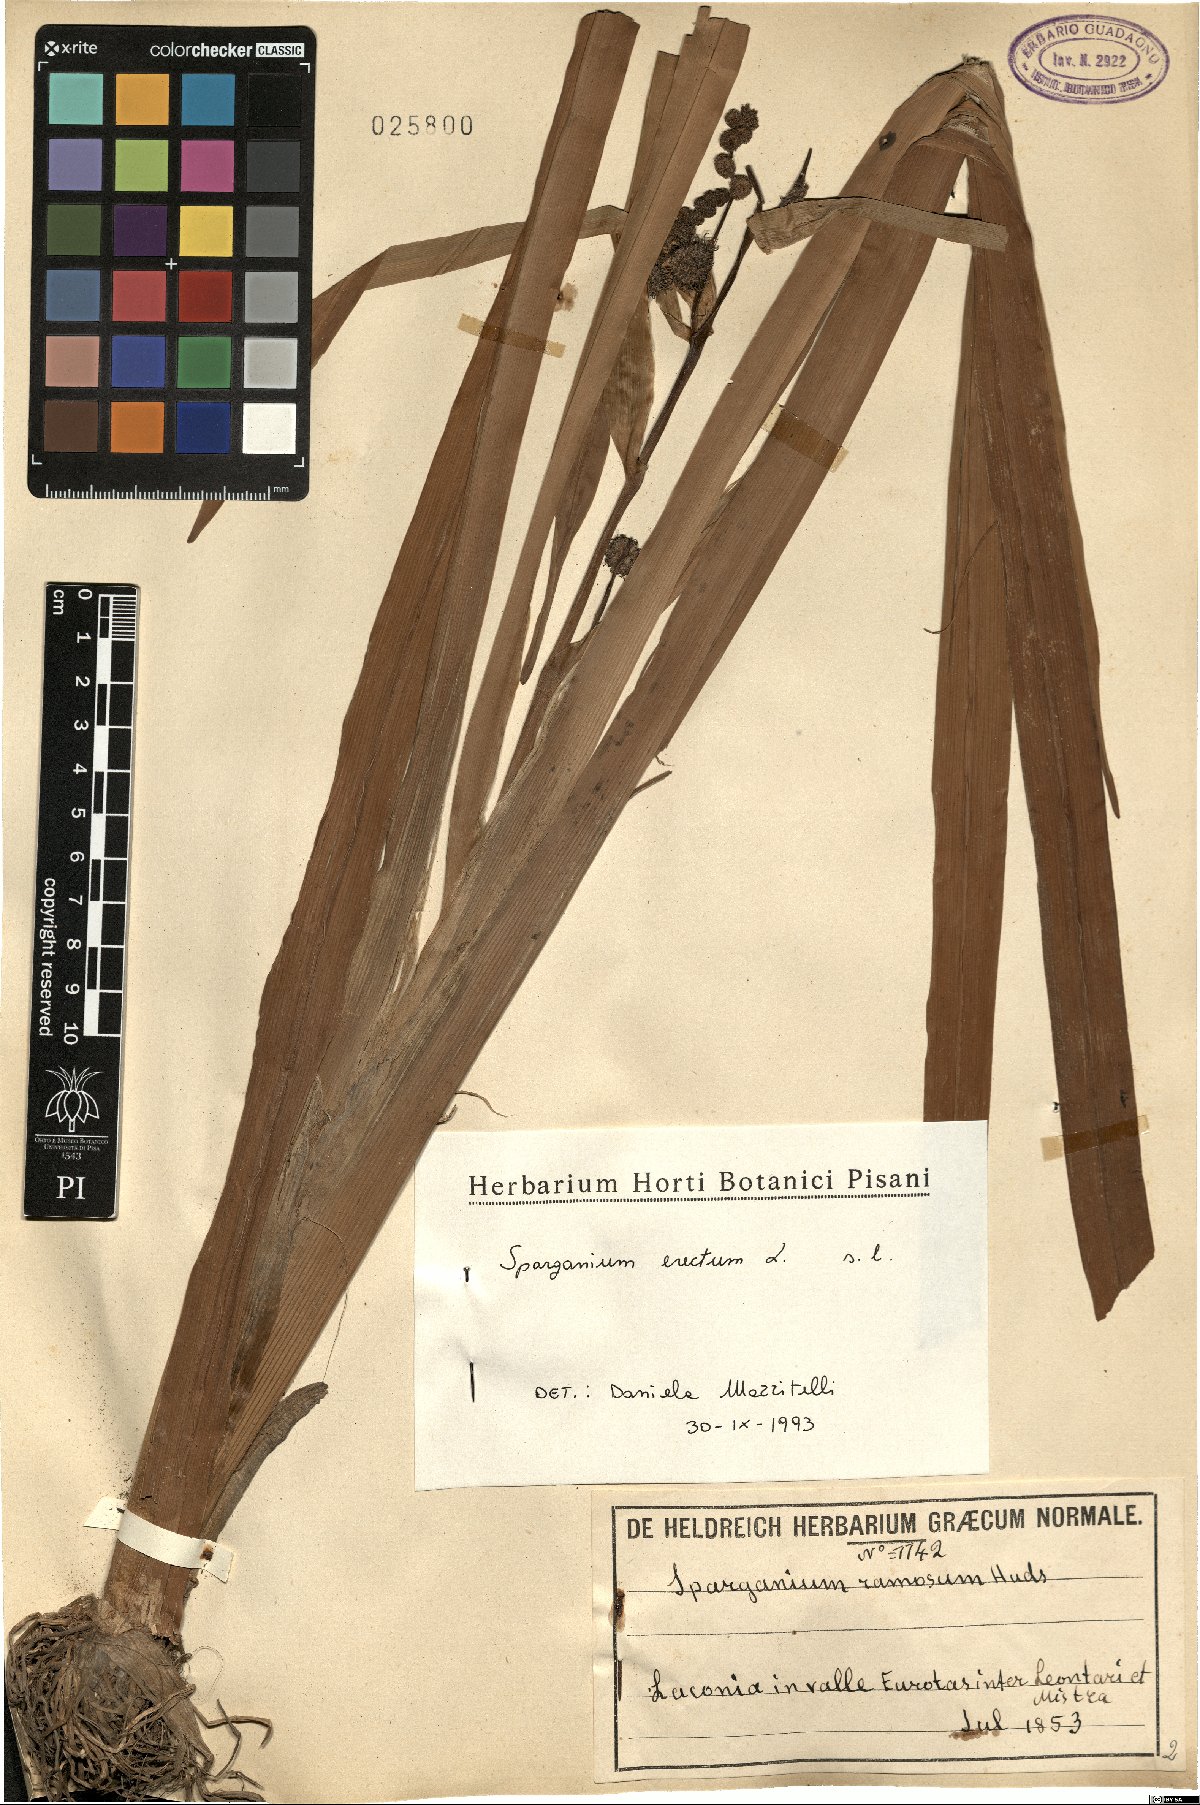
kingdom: Plantae
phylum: Tracheophyta
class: Liliopsida
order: Poales
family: Typhaceae
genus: Sparganium
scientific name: Sparganium erectum
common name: Branched bur-reed
